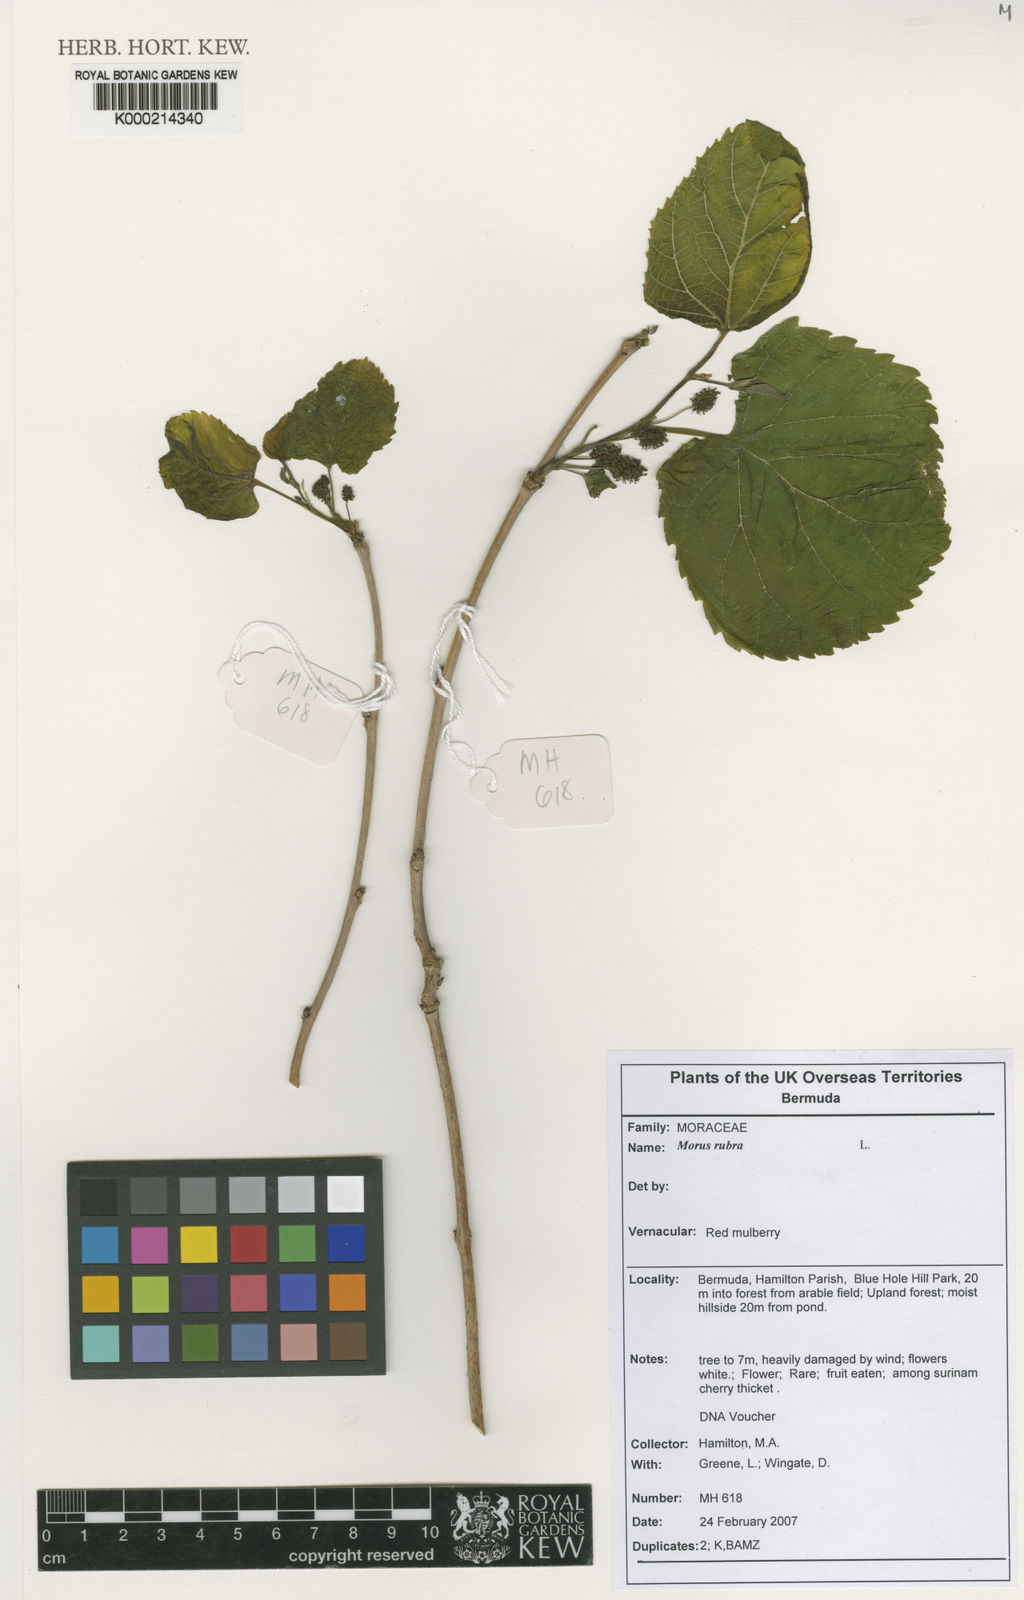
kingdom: Plantae
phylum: Tracheophyta
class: Magnoliopsida
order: Rosales
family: Moraceae
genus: Morus
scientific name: Morus rubra
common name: Red mulberry
